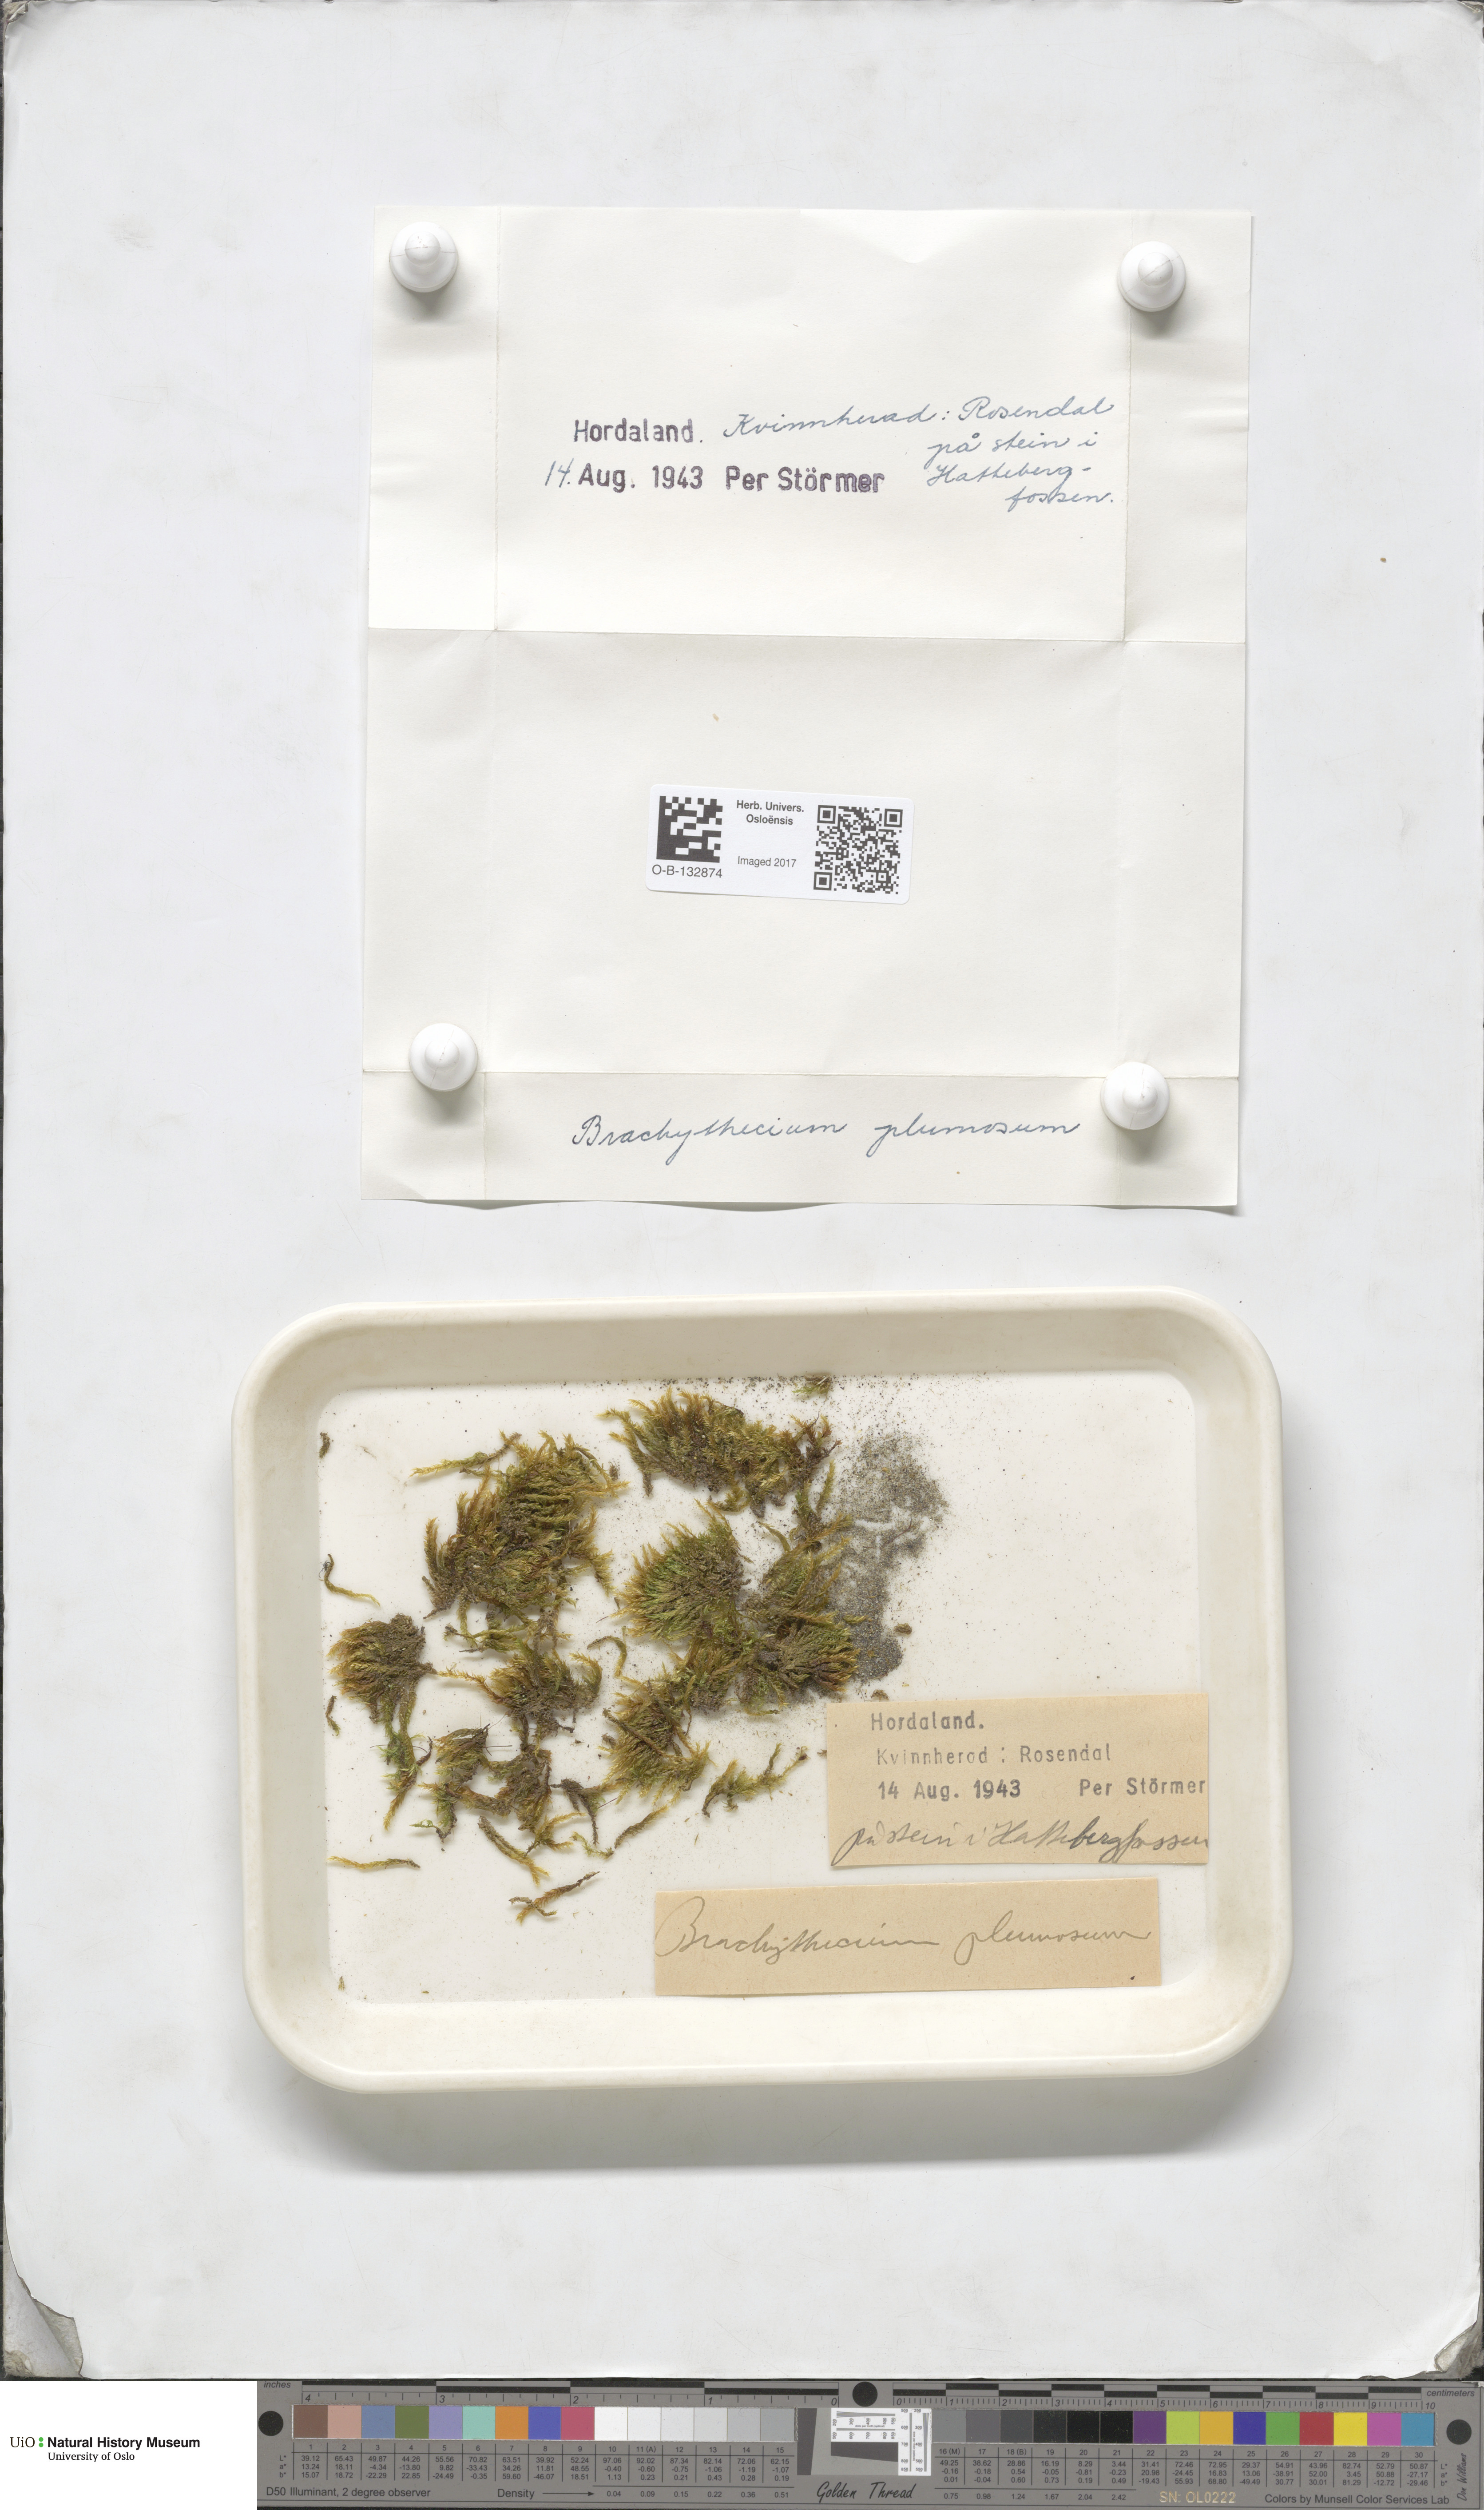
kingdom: Plantae
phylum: Bryophyta
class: Bryopsida
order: Hypnales
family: Brachytheciaceae
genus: Sciuro-hypnum
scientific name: Sciuro-hypnum plumosum
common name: Rusty feather-moss
